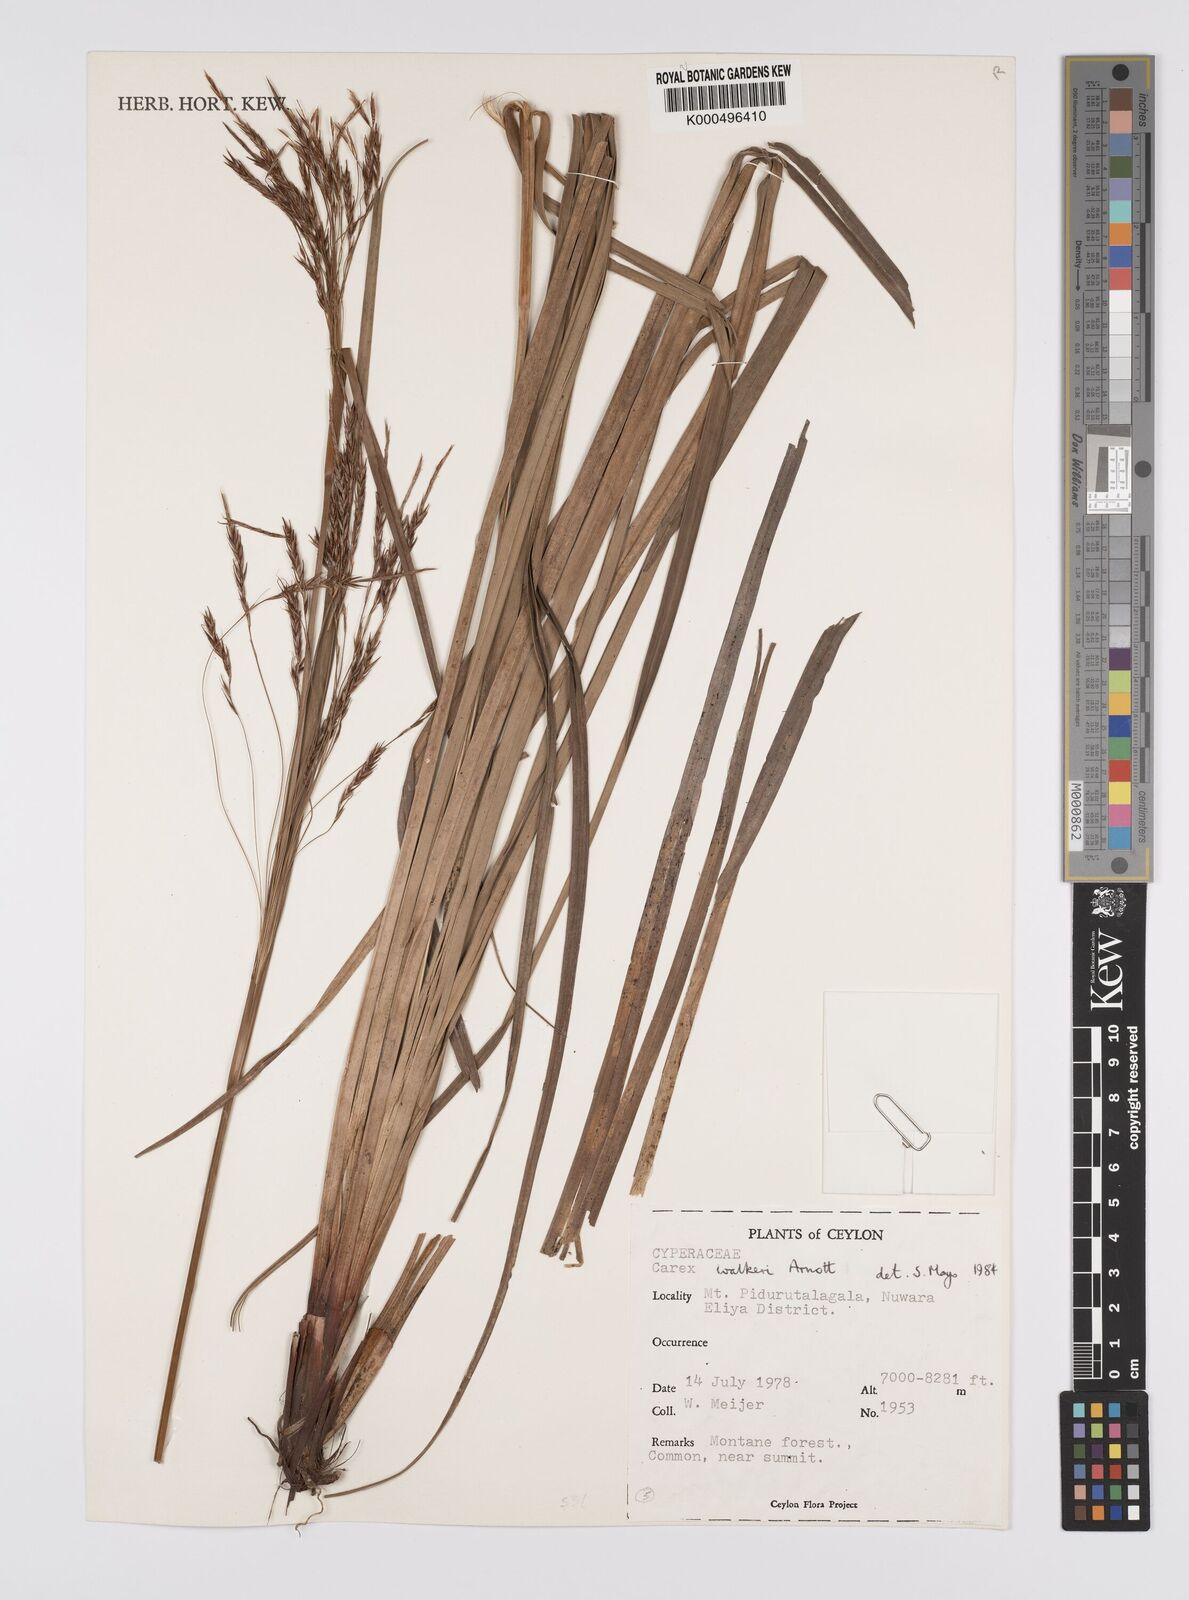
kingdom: Plantae
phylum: Tracheophyta
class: Liliopsida
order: Poales
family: Cyperaceae
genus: Carex
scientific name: Carex walkeri
